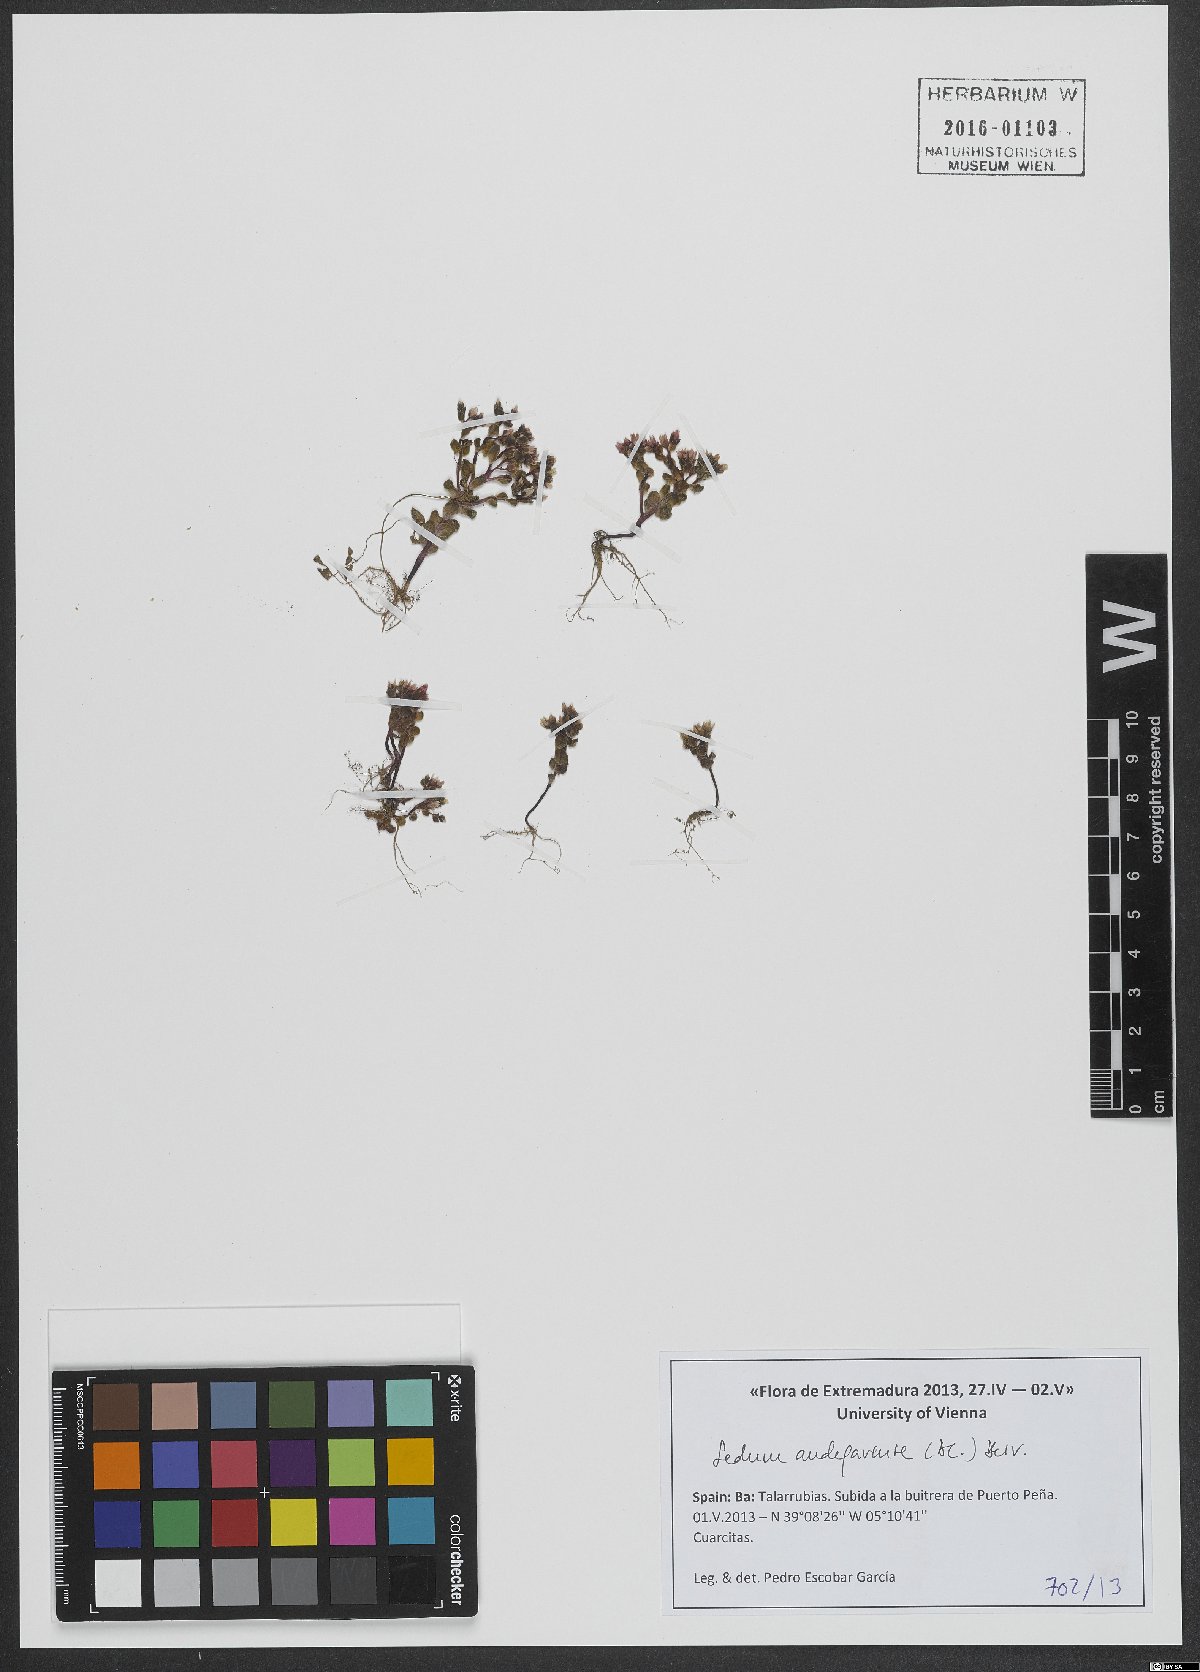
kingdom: Plantae
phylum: Tracheophyta
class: Magnoliopsida
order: Saxifragales
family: Crassulaceae
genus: Sedum
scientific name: Sedum andegavense
